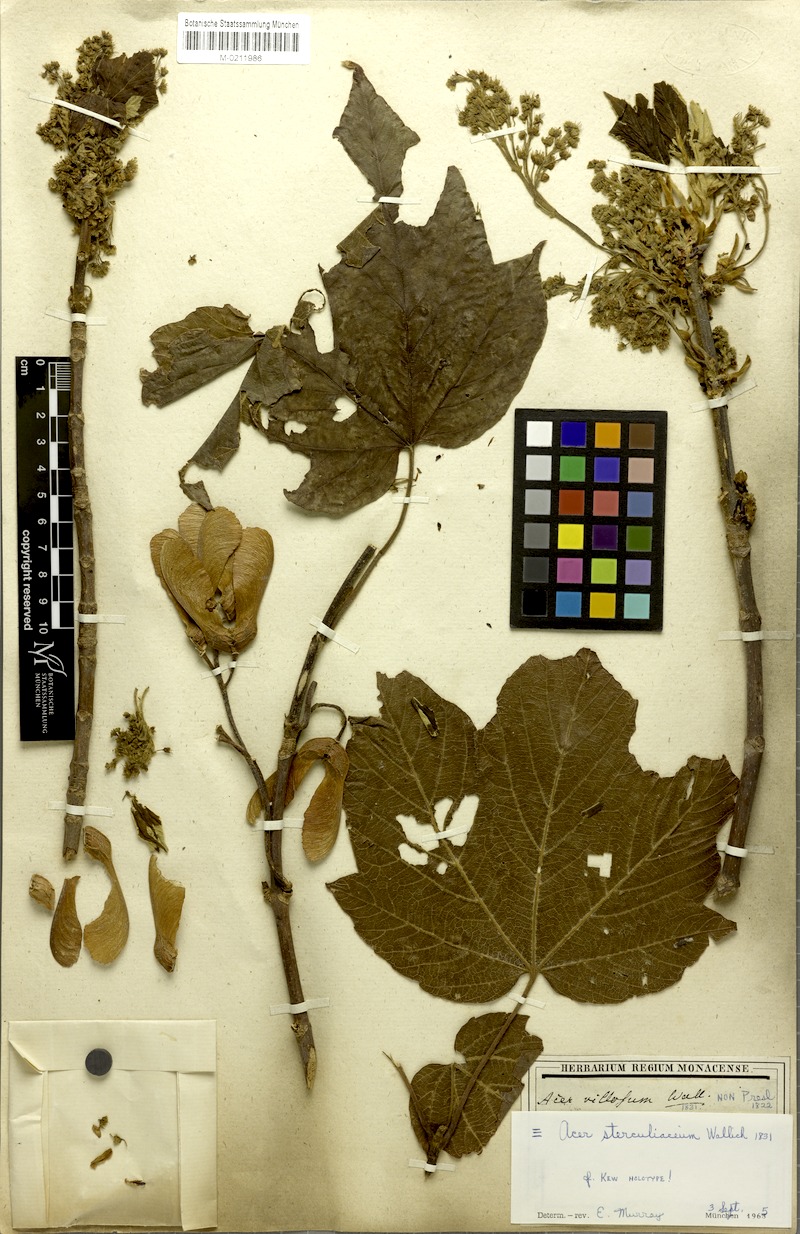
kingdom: Plantae
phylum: Tracheophyta
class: Magnoliopsida
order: Sapindales
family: Sapindaceae
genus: Acer
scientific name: Acer sterculiaceum
